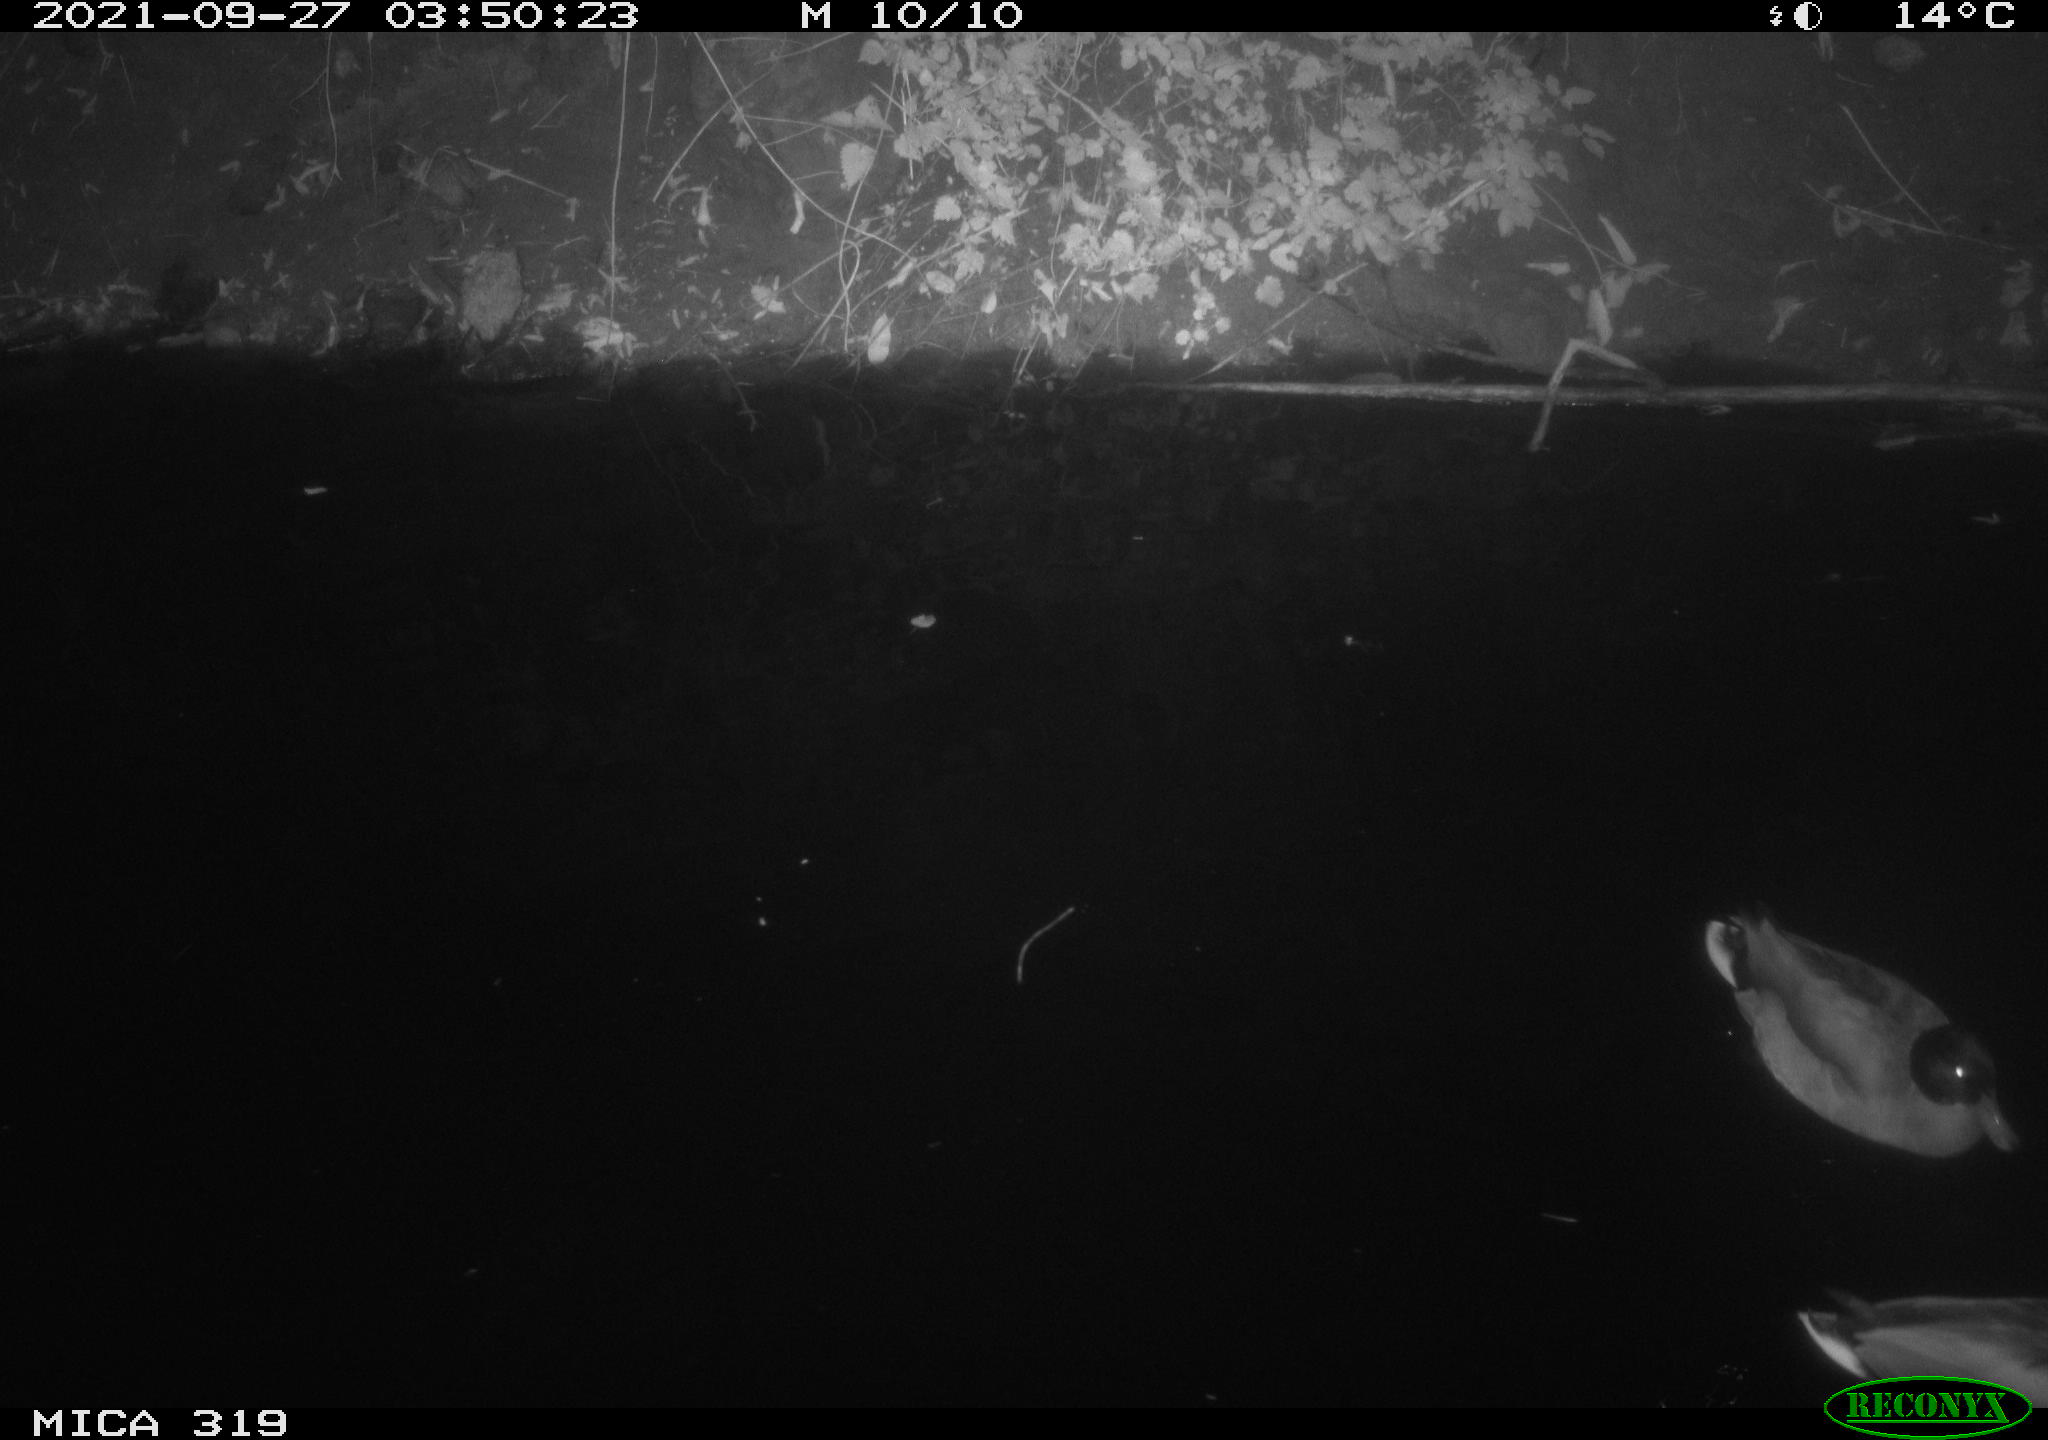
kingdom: Animalia
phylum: Chordata
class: Aves
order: Anseriformes
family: Anatidae
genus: Anas
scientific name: Anas platyrhynchos
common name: Mallard
